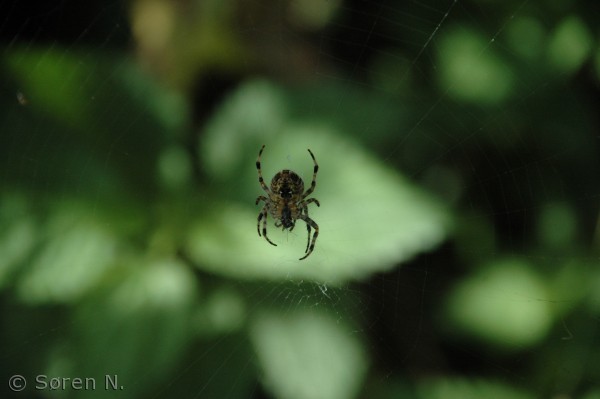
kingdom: Animalia
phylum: Arthropoda
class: Arachnida
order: Araneae
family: Araneidae
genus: Araneus
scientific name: Araneus diadematus
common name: Korsedderkop
